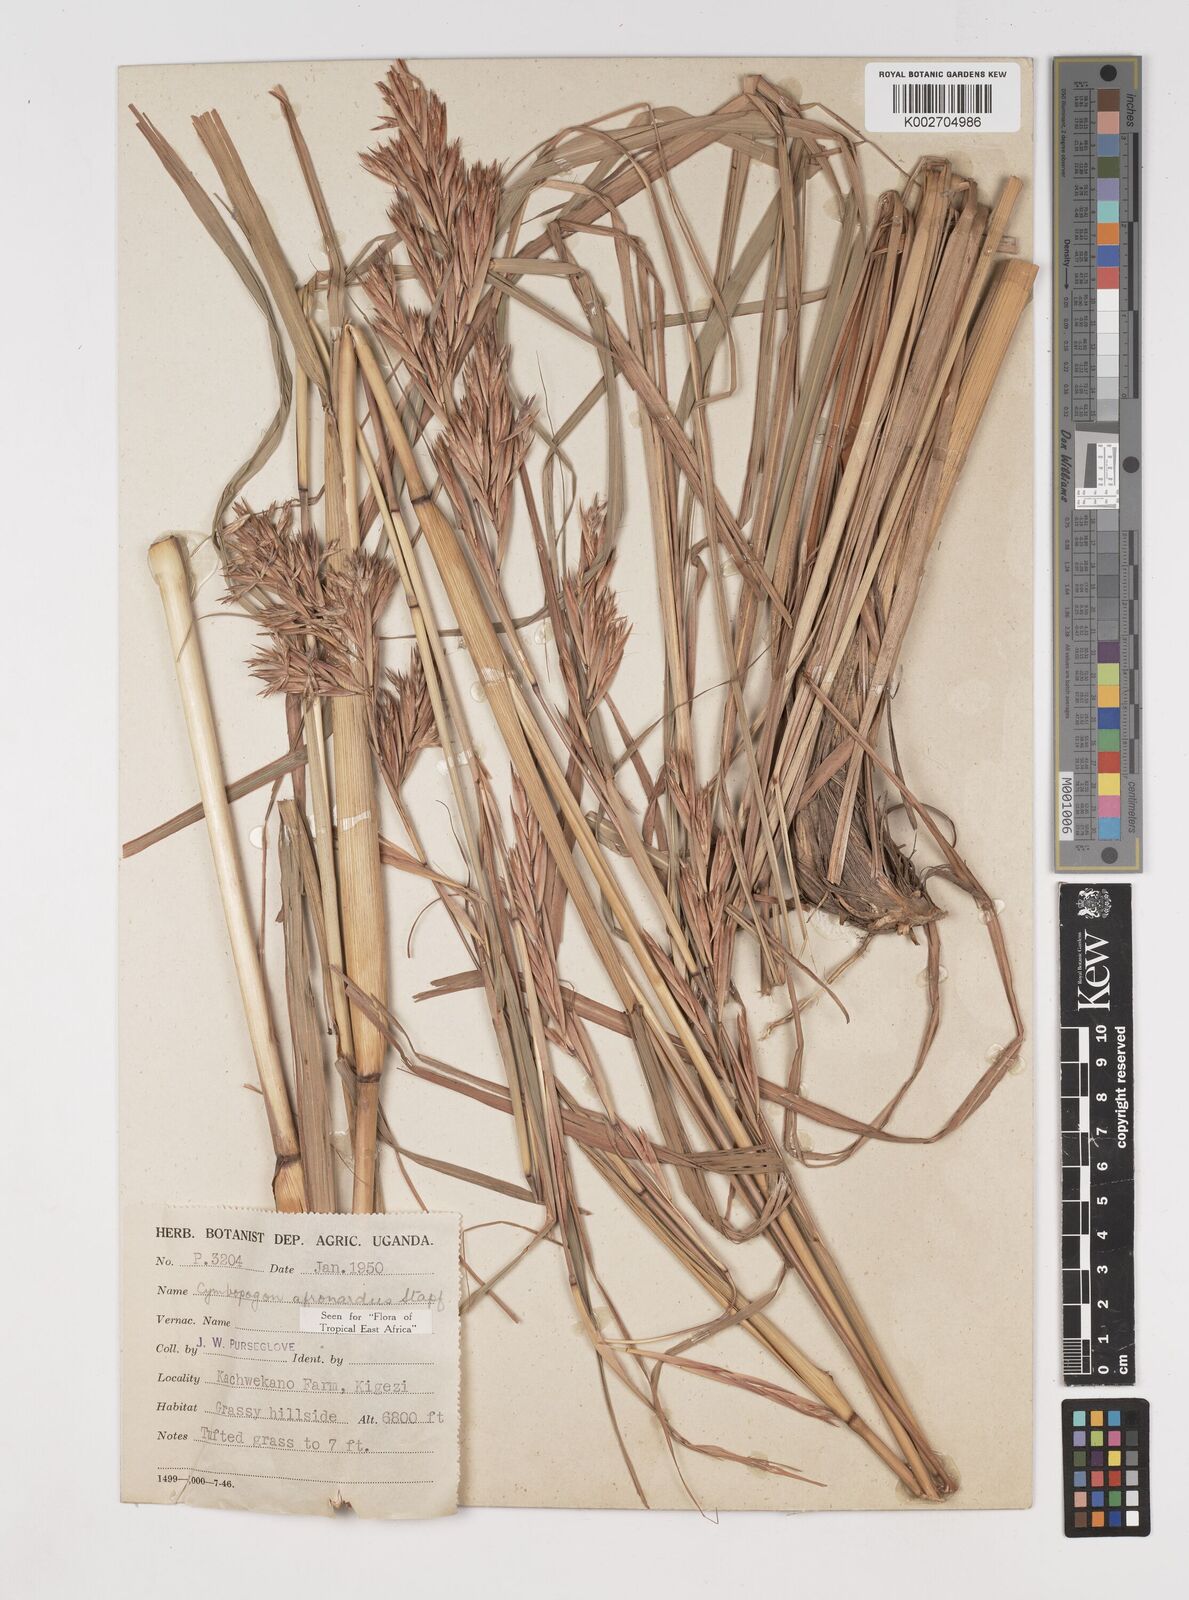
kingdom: Plantae
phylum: Tracheophyta
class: Liliopsida
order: Poales
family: Poaceae
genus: Cymbopogon
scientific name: Cymbopogon nardus
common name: Giant turpentine grass
